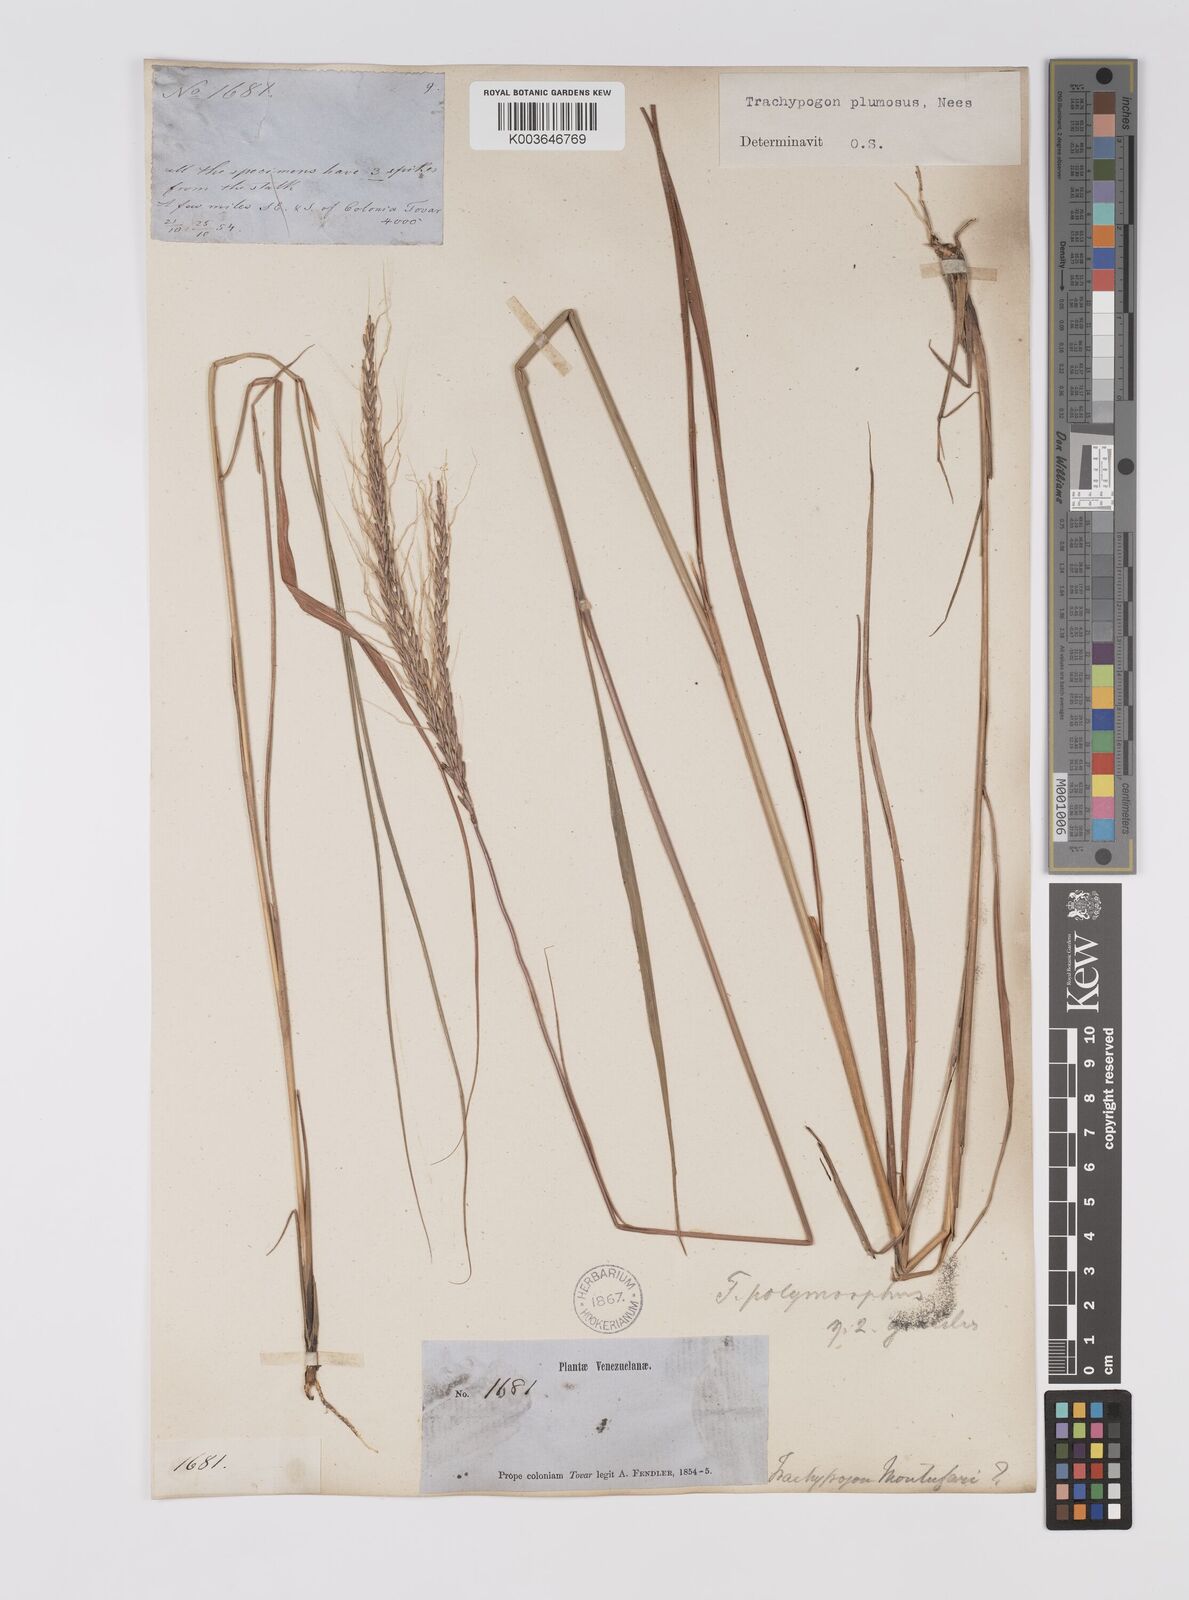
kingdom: Plantae
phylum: Tracheophyta
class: Liliopsida
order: Poales
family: Poaceae
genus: Trachypogon
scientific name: Trachypogon spicatus
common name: Crinkle-awn
